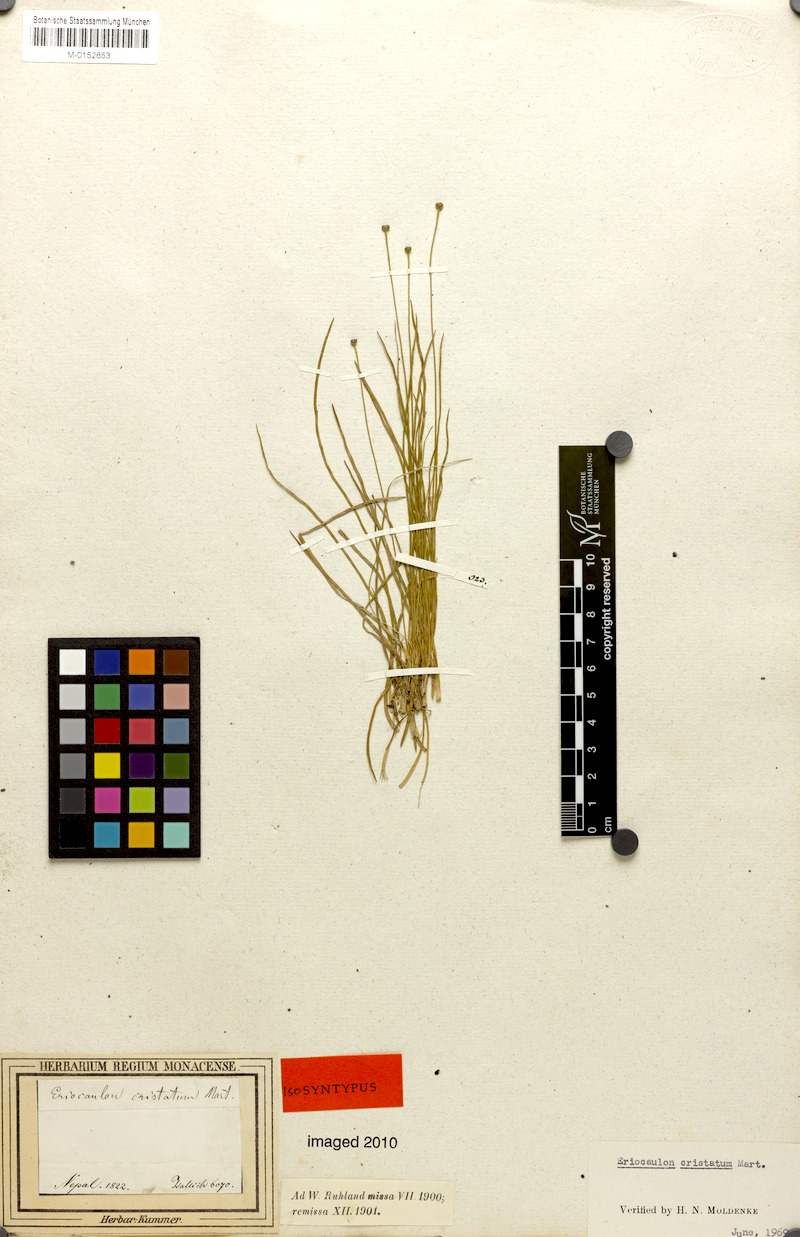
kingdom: Plantae
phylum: Tracheophyta
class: Liliopsida
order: Poales
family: Eriocaulaceae
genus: Eriocaulon
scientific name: Eriocaulon cristatum
